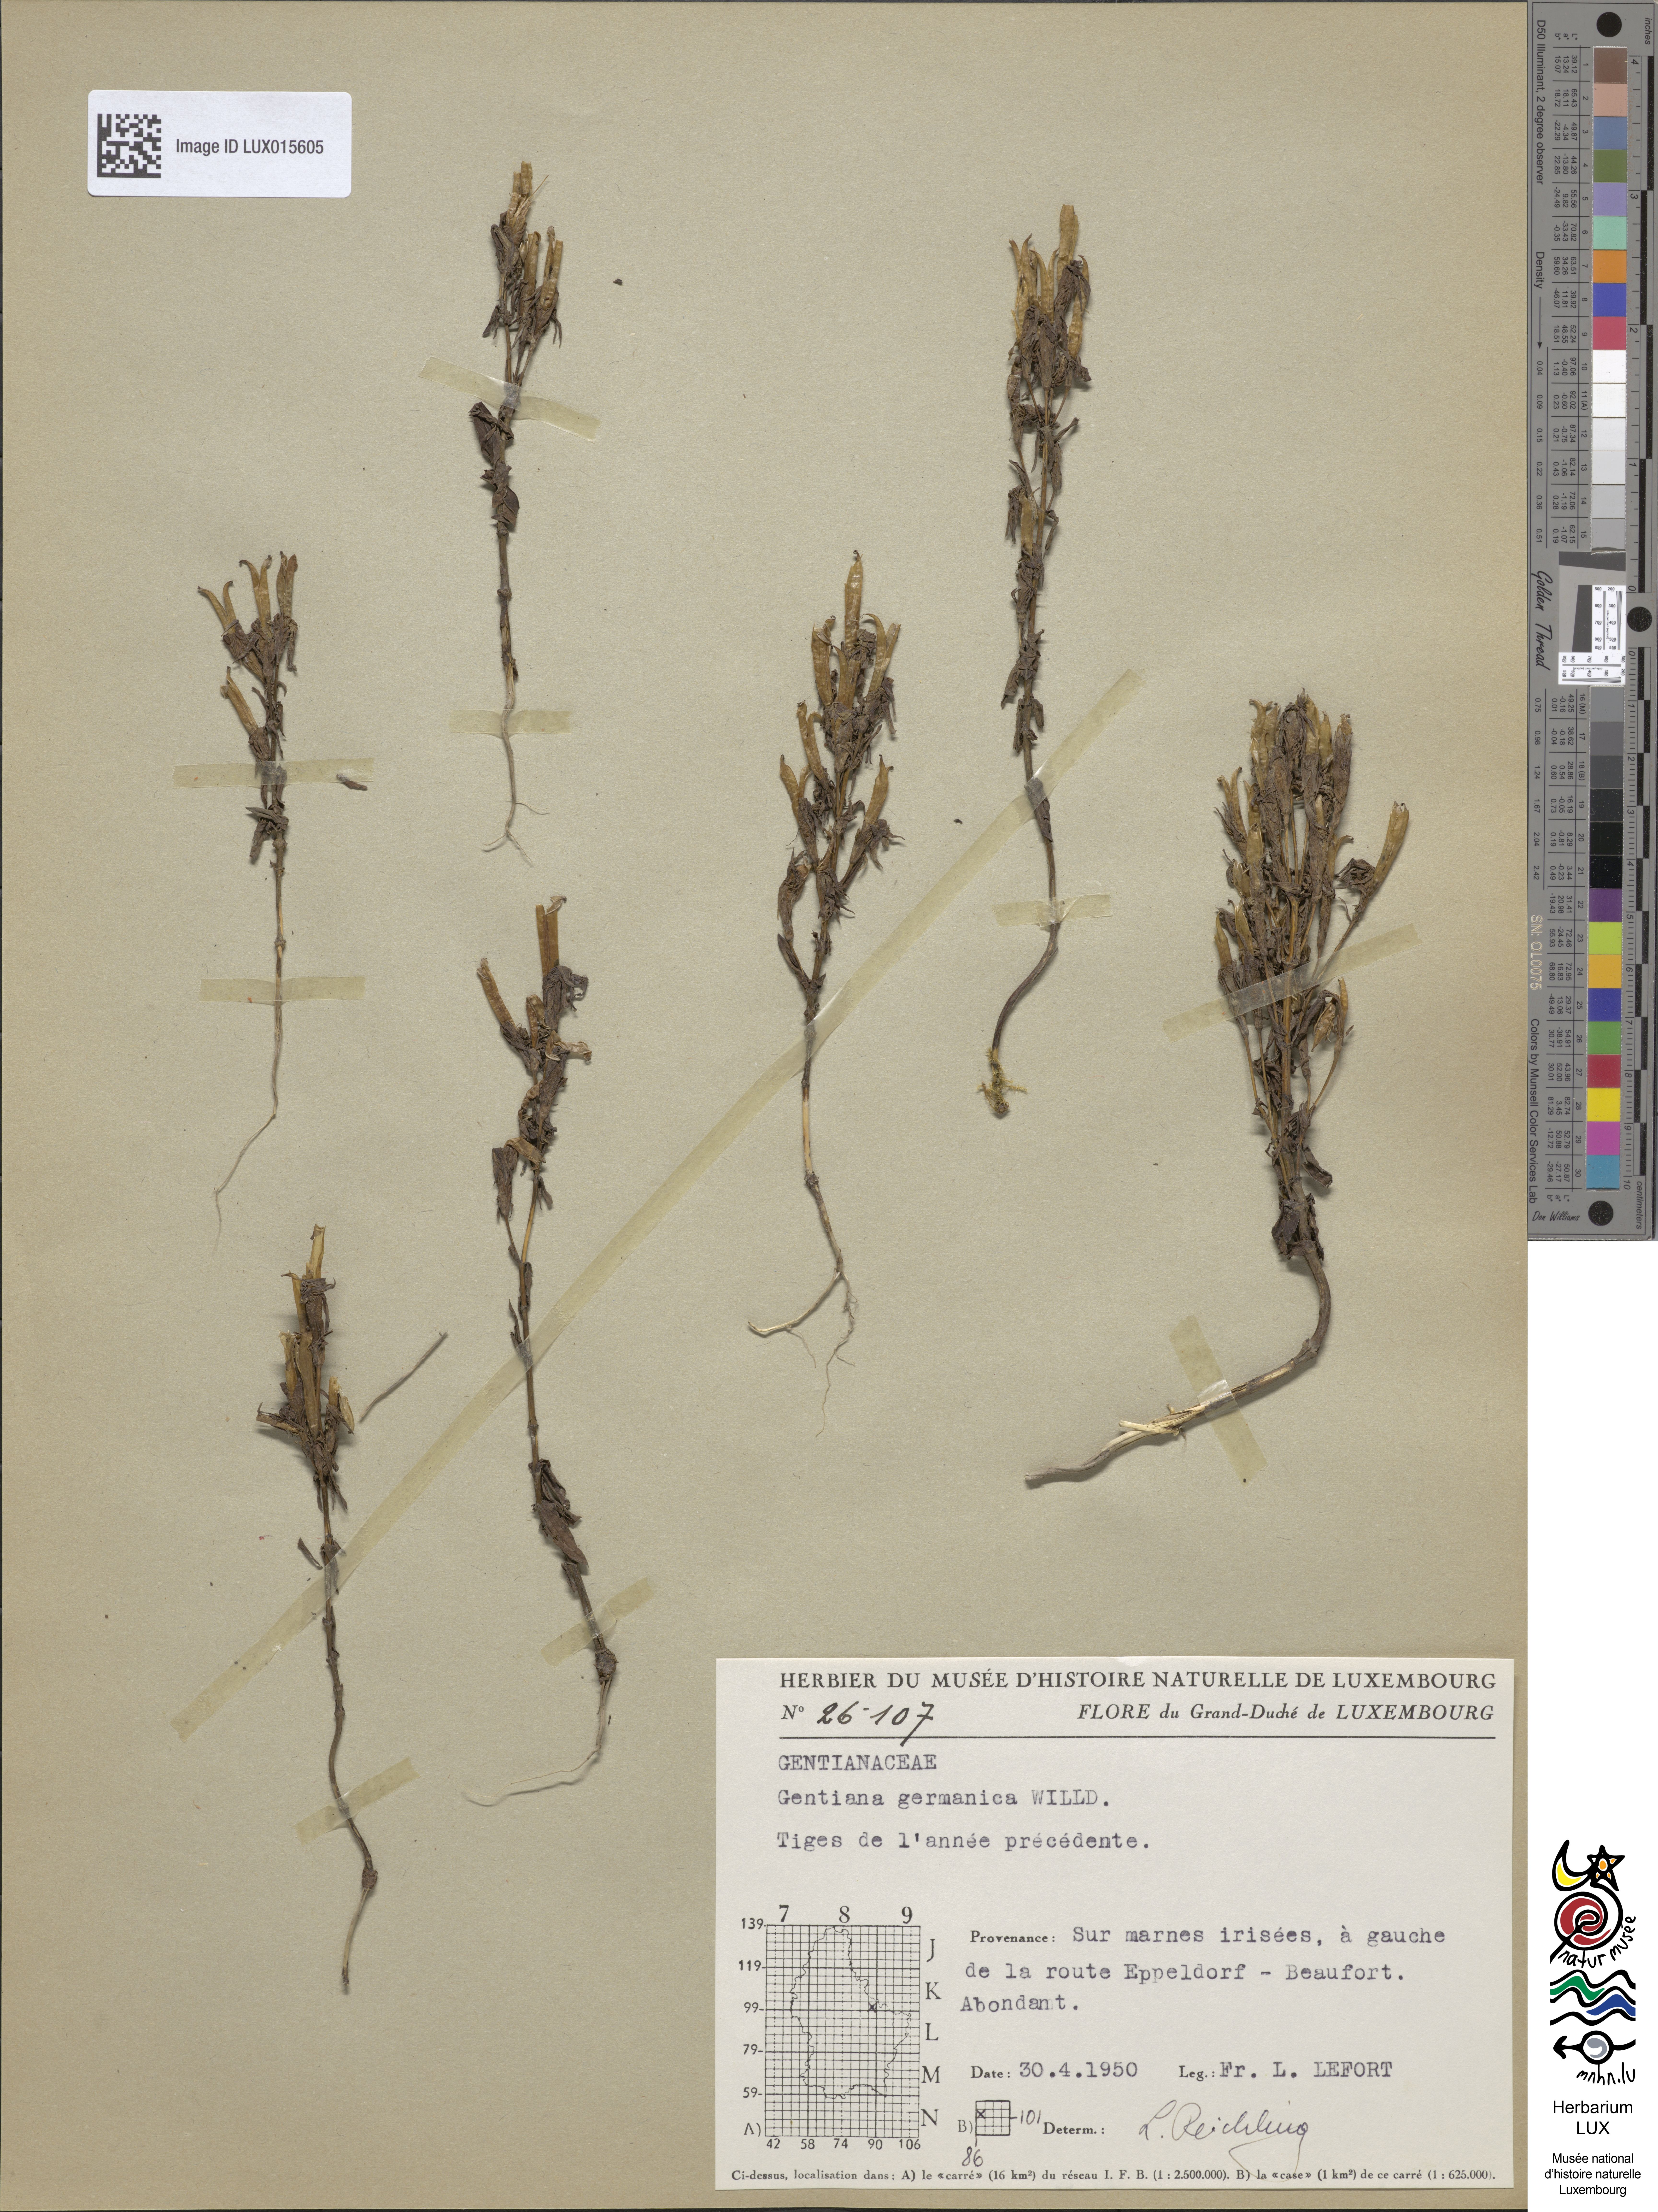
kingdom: Plantae
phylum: Tracheophyta
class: Magnoliopsida
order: Gentianales
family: Gentianaceae
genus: Gentianella
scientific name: Gentianella germanica
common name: Chiltern-gentian
